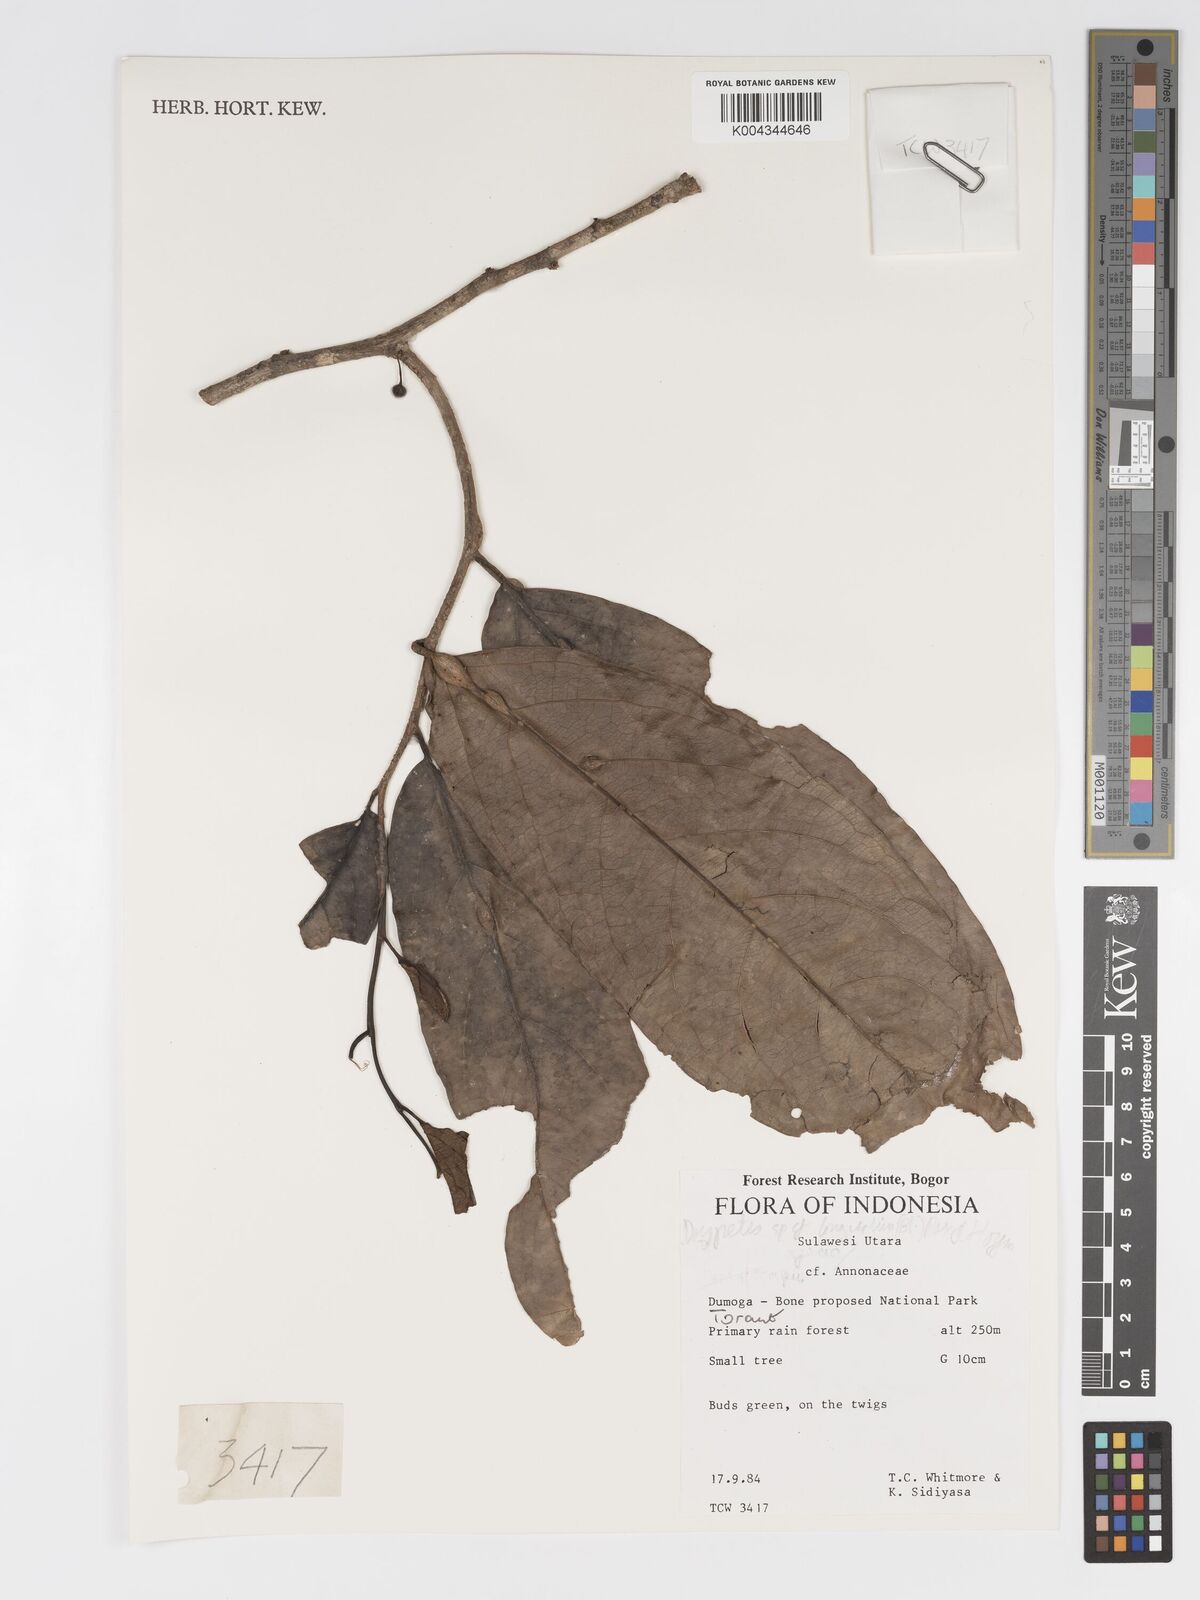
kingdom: Plantae
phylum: Tracheophyta
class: Magnoliopsida
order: Malpighiales
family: Putranjivaceae
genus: Drypetes
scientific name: Drypetes longifolia
